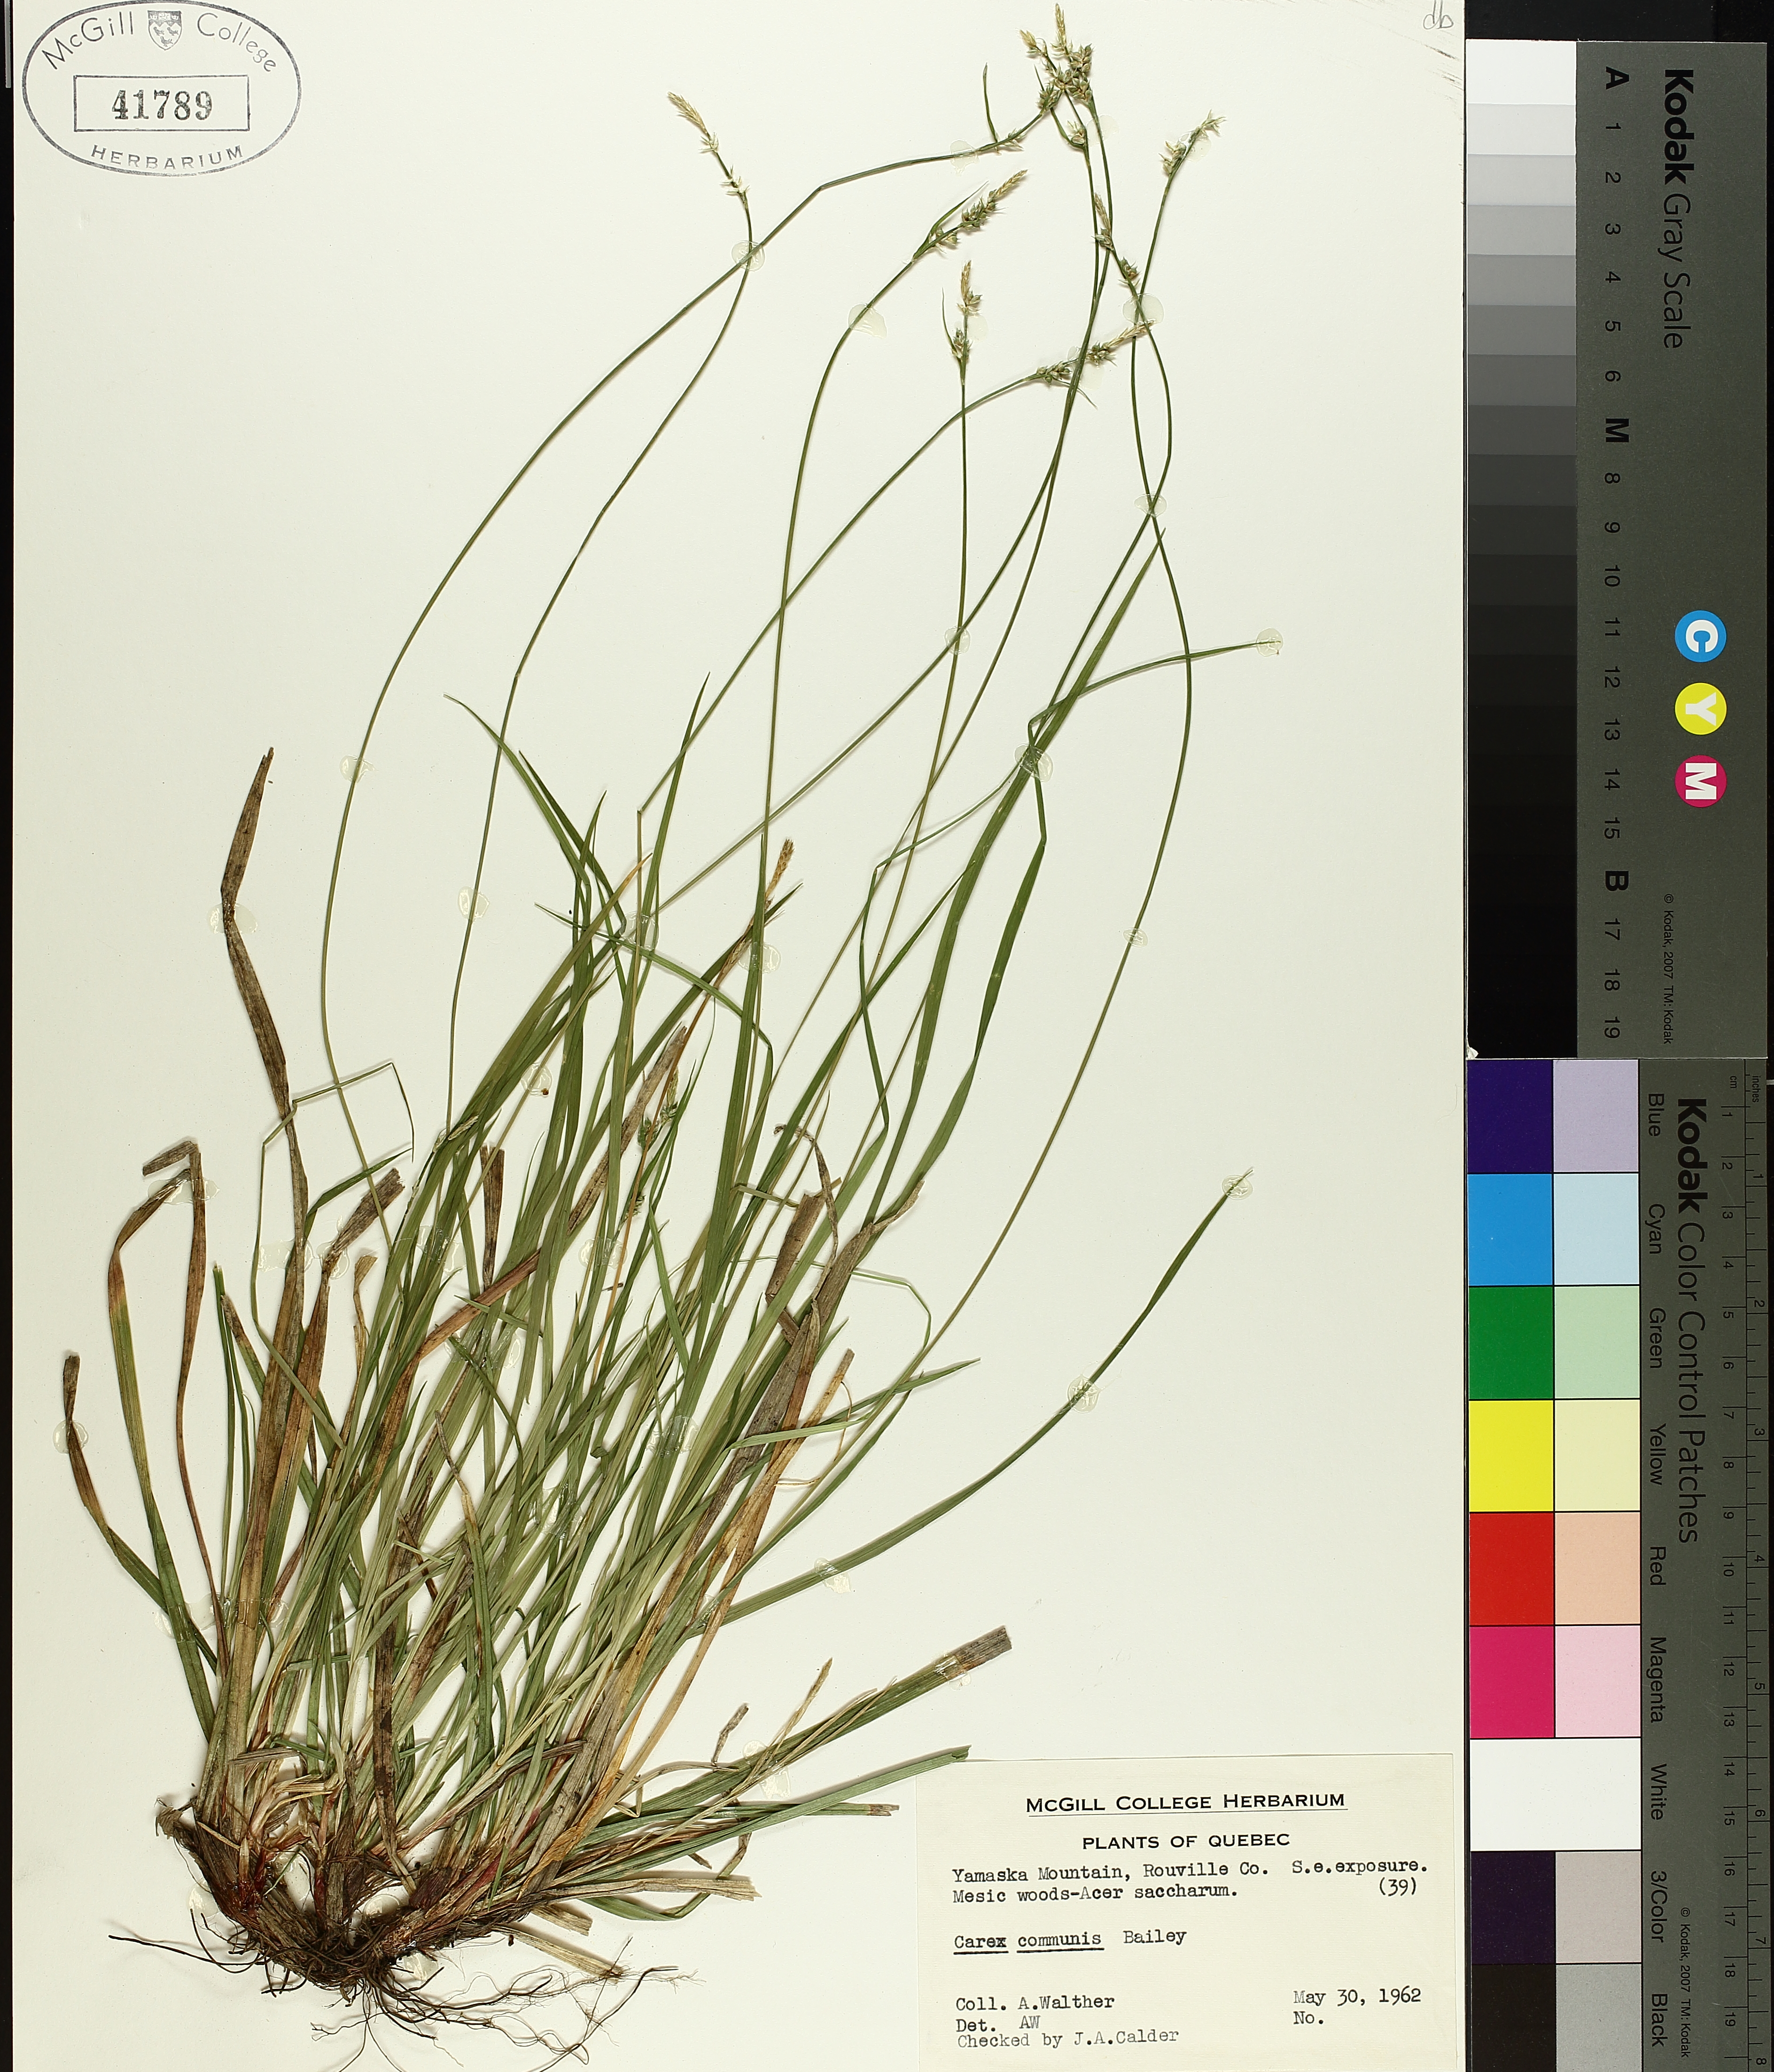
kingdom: Plantae
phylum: Tracheophyta
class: Liliopsida
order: Poales
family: Cyperaceae
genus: Carex
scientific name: Carex communis
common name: Colonial oak sedge
